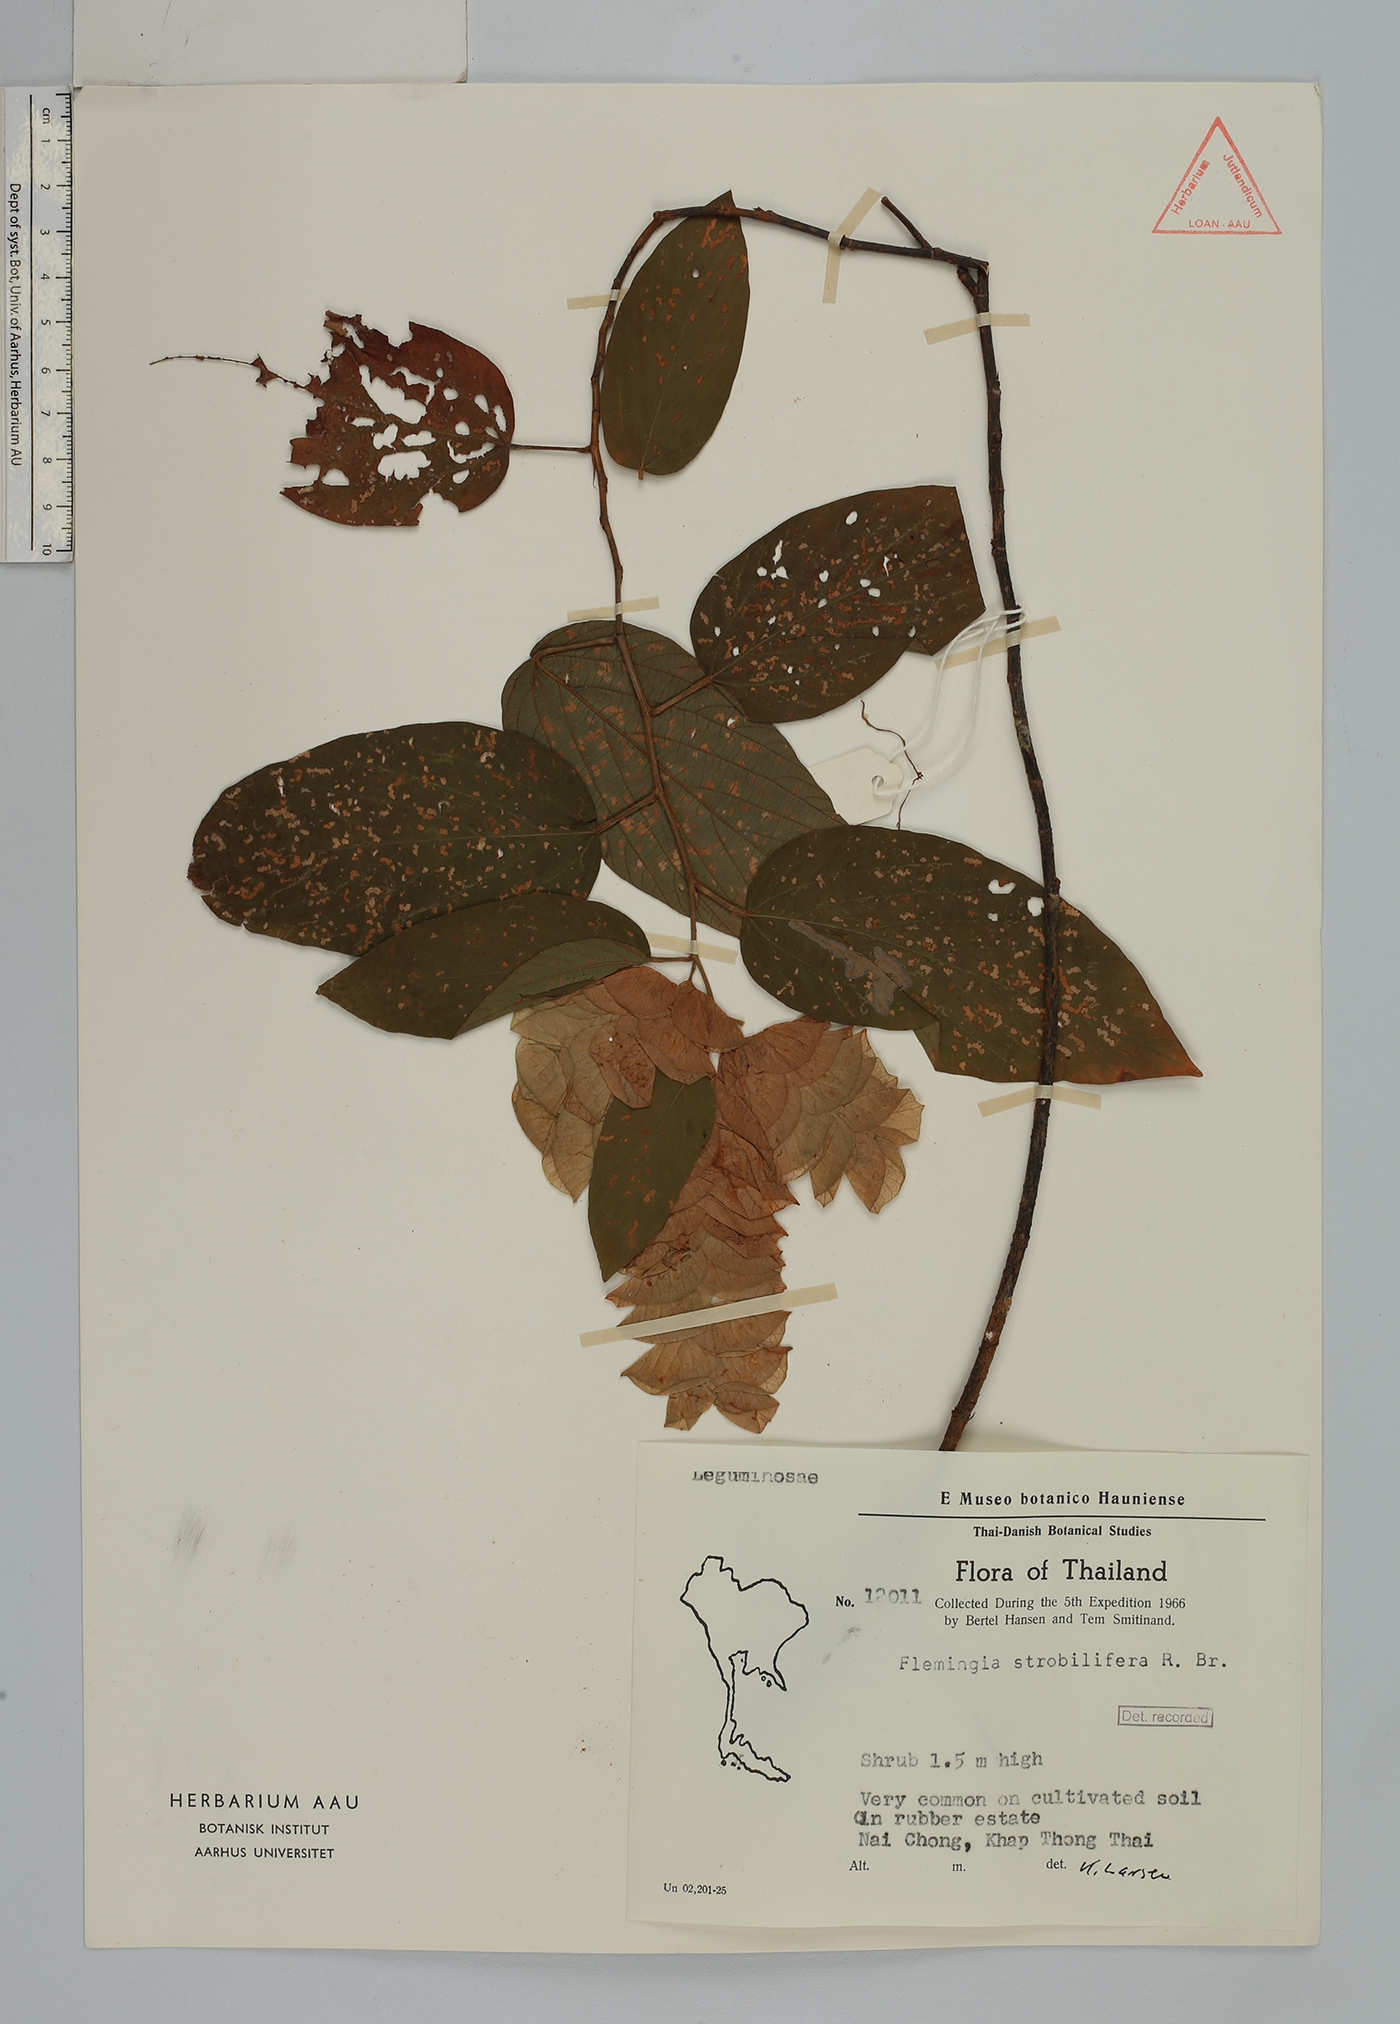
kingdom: Plantae
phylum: Tracheophyta
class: Magnoliopsida
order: Fabales
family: Fabaceae
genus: Flemingia
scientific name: Flemingia strobilifera
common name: Wild hops
